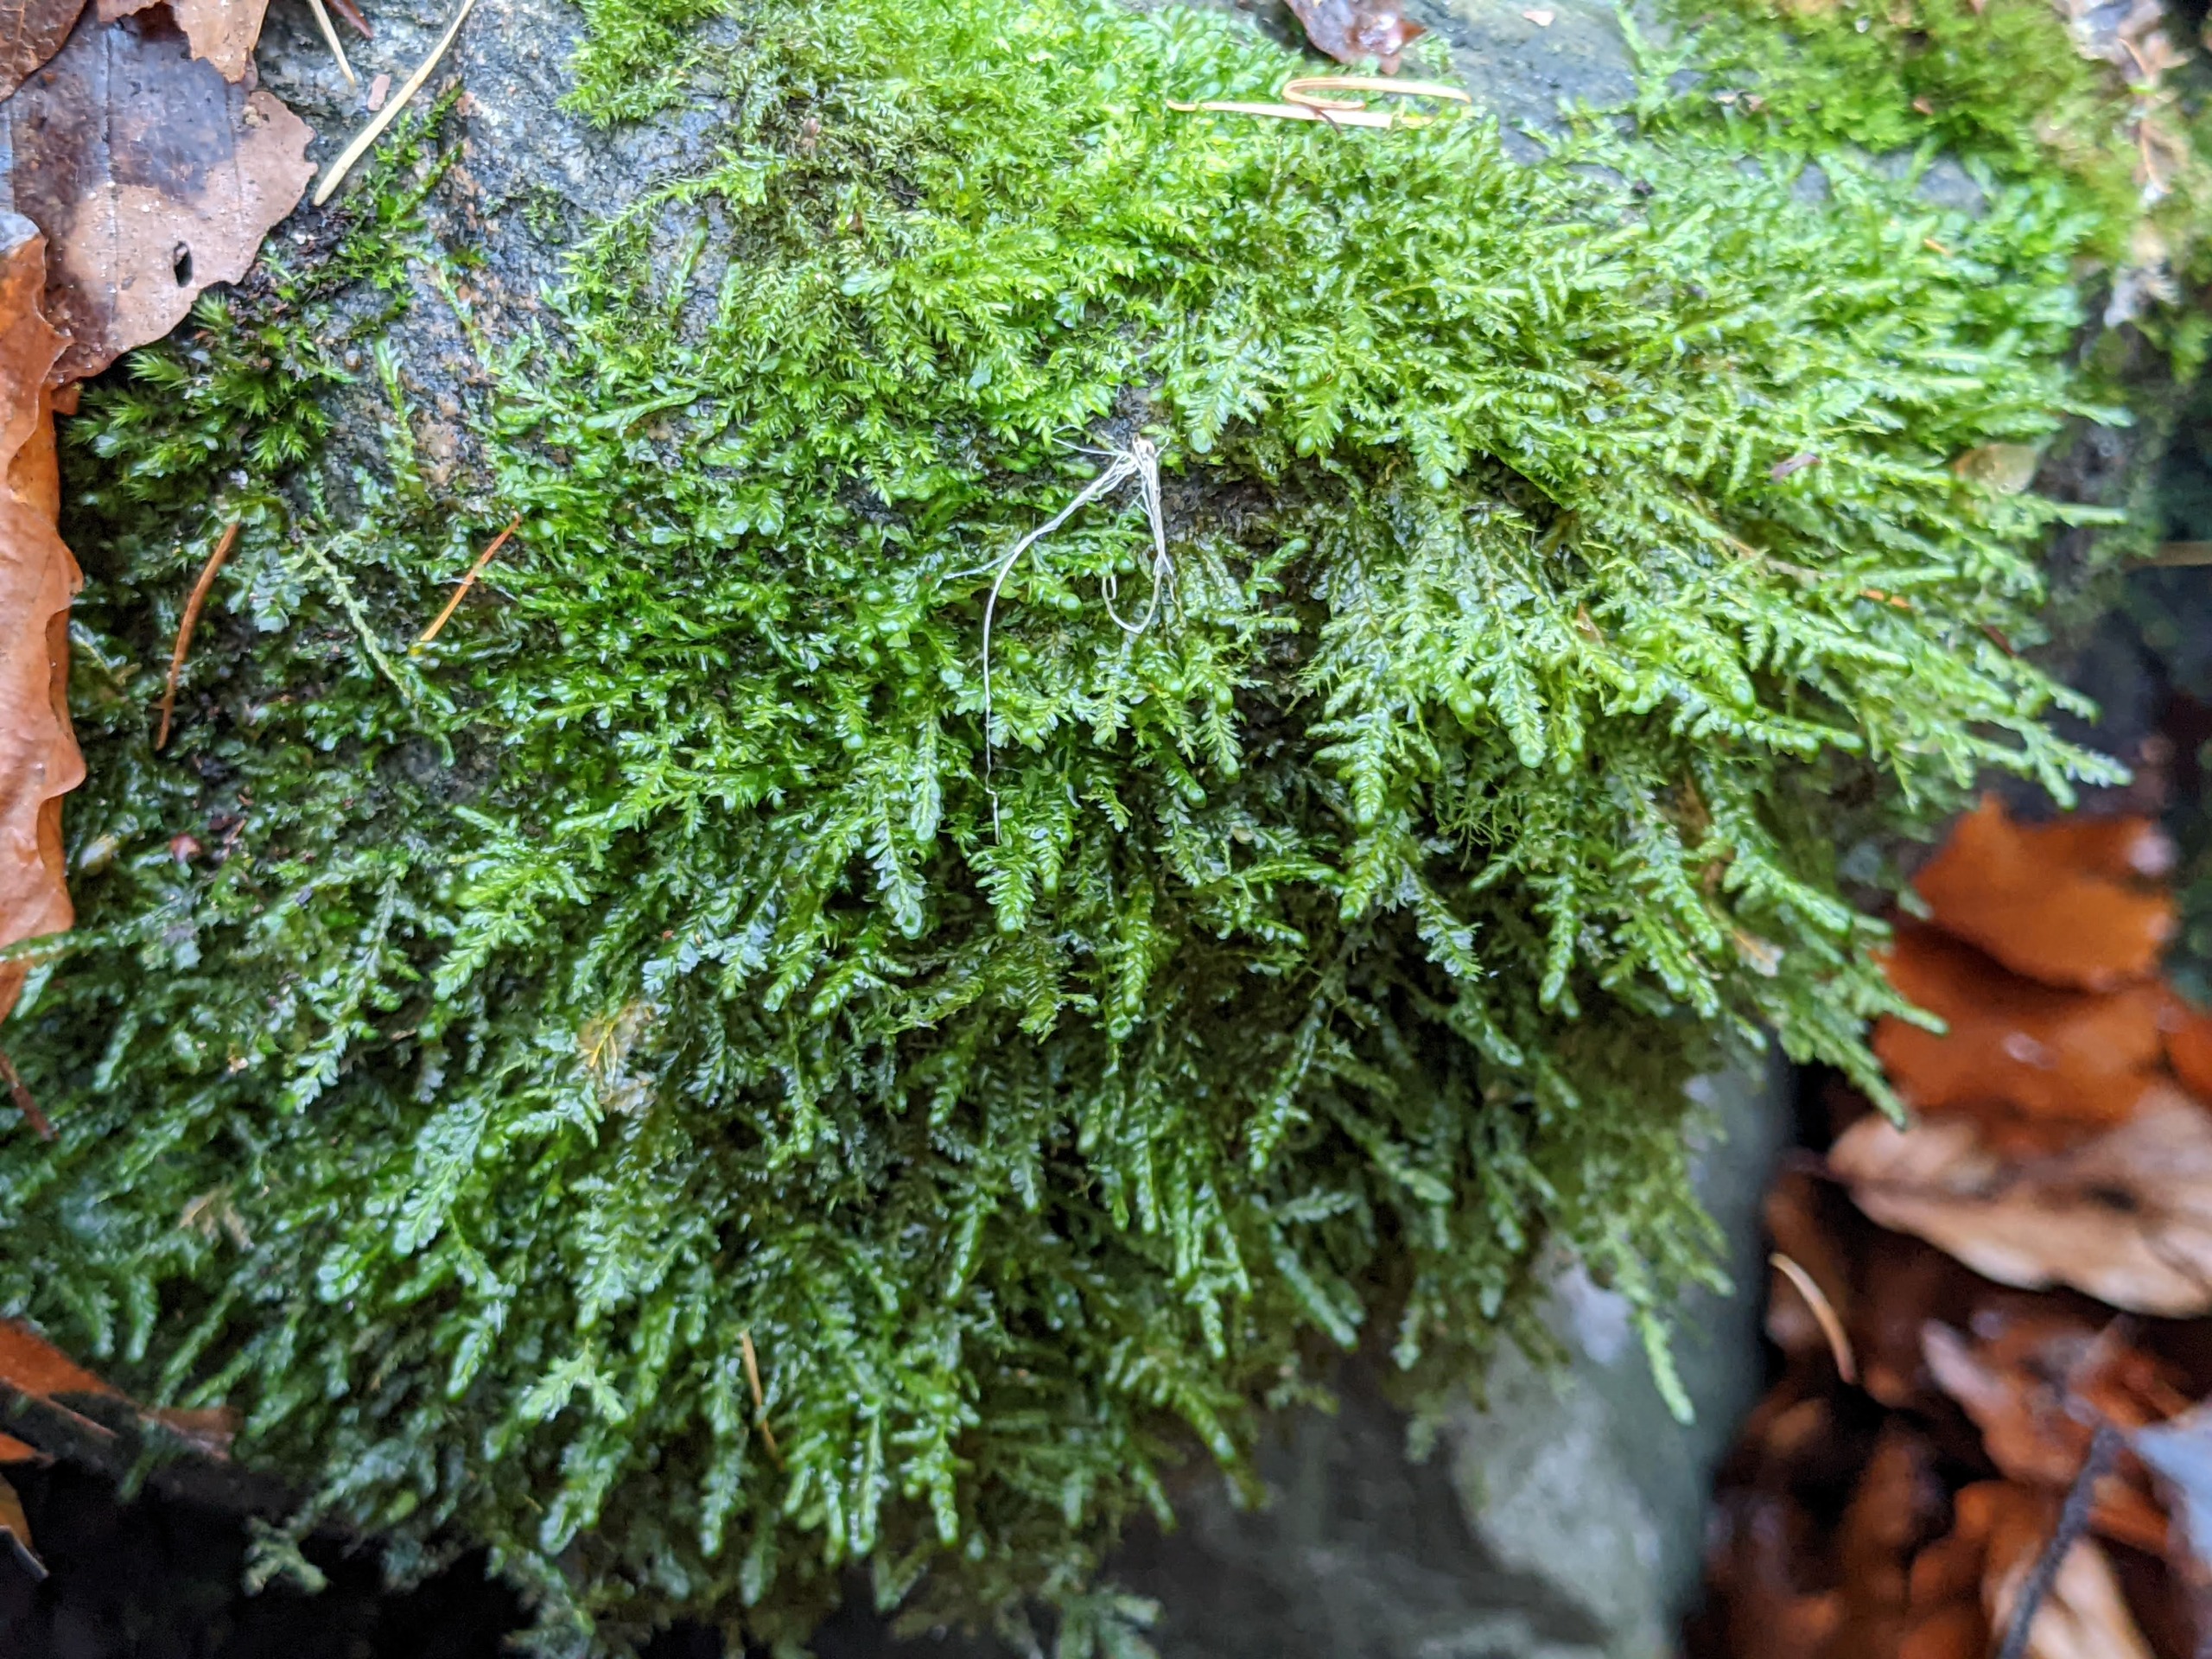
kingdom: Plantae
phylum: Bryophyta
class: Bryopsida
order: Hypnales
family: Neckeraceae
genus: Alleniella
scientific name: Alleniella complanata
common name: Almindelig fladmos
